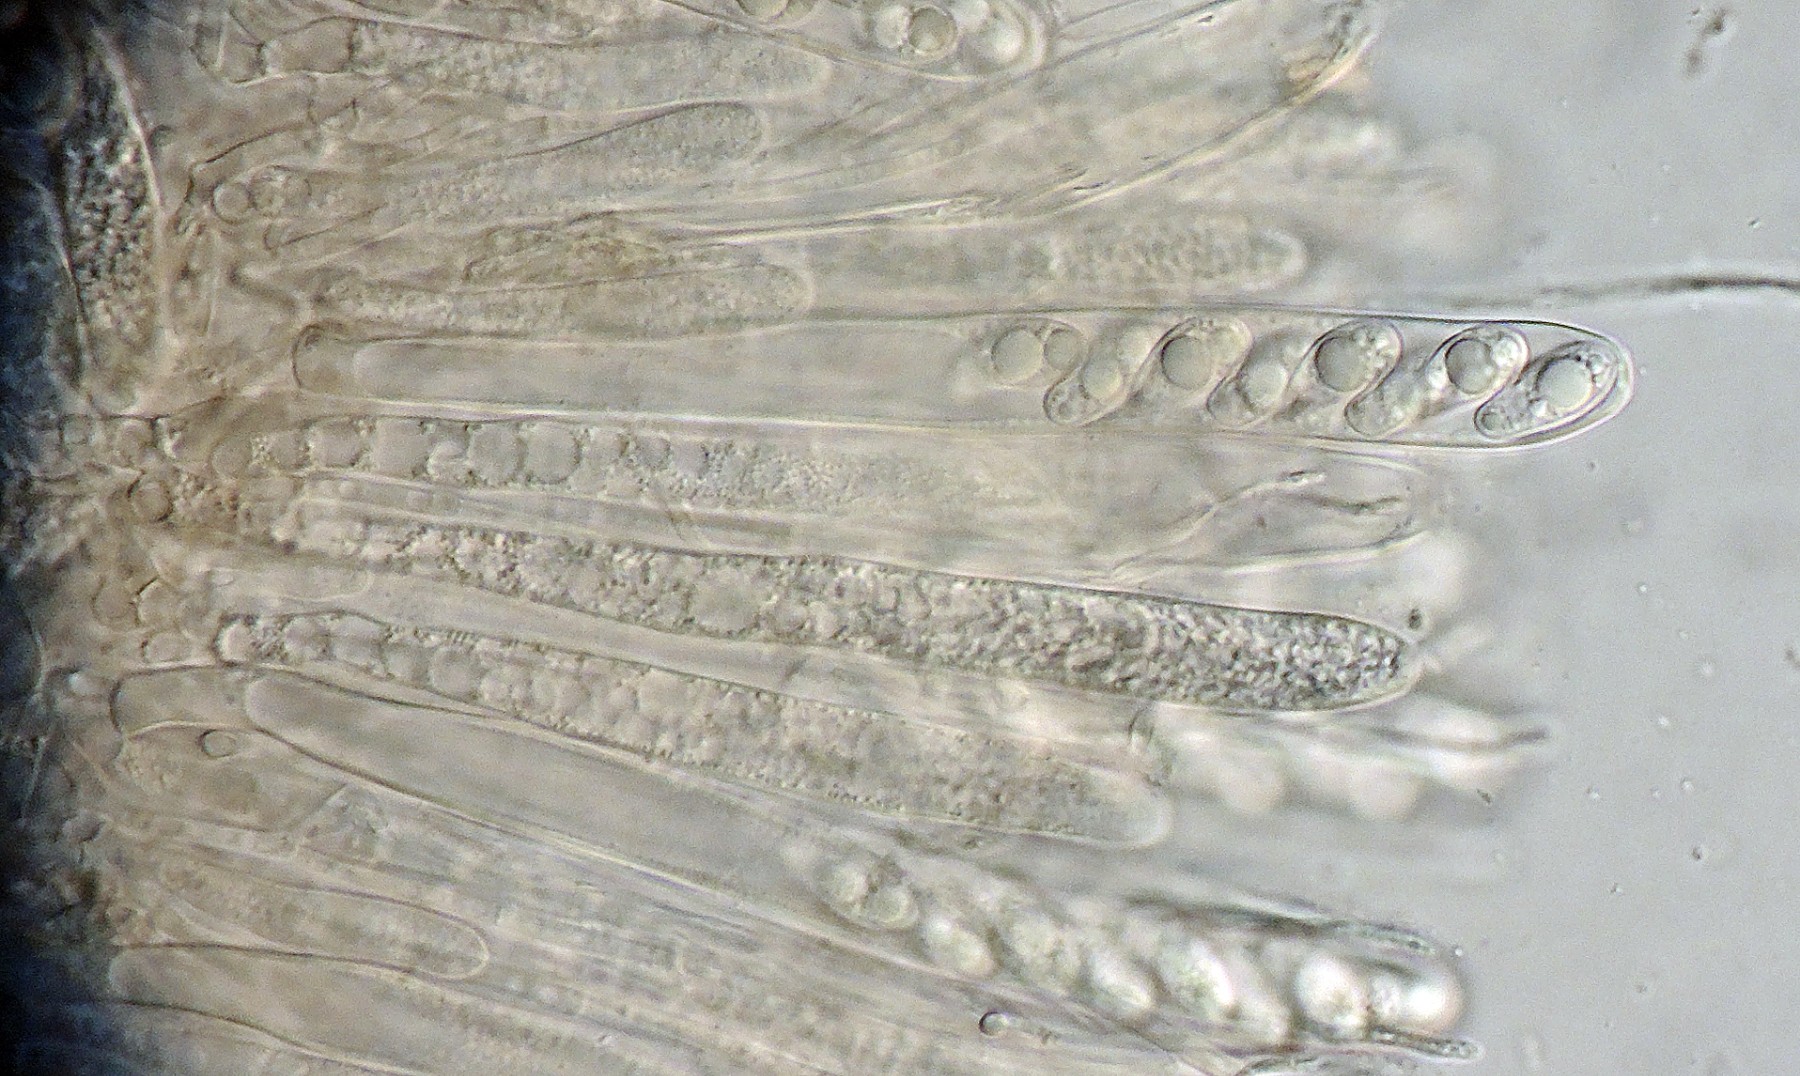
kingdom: Fungi
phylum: Ascomycota
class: Leotiomycetes
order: Helotiales
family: Rutstroemiaceae
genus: Rutstroemia
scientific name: Rutstroemia sydowiana
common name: egeblads-brunskive
